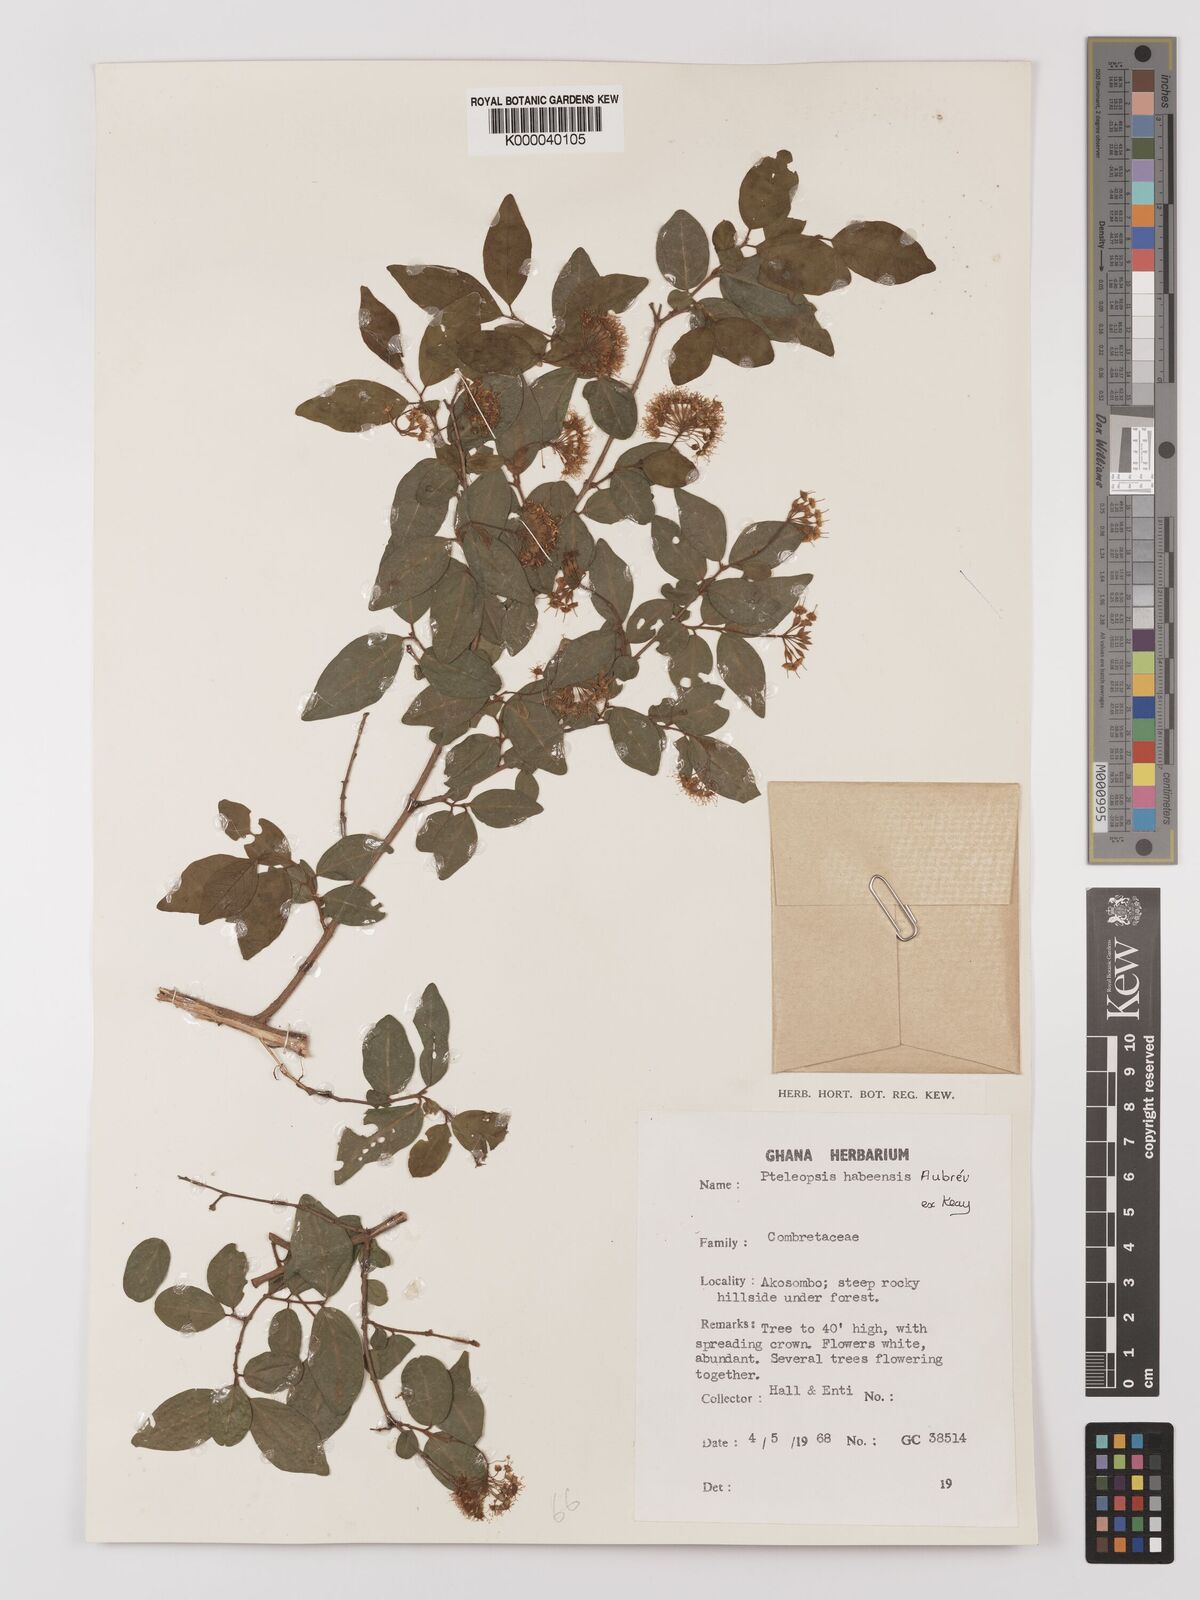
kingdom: Plantae
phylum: Tracheophyta
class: Magnoliopsida
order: Myrtales
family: Combretaceae
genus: Terminalia
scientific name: Terminalia
